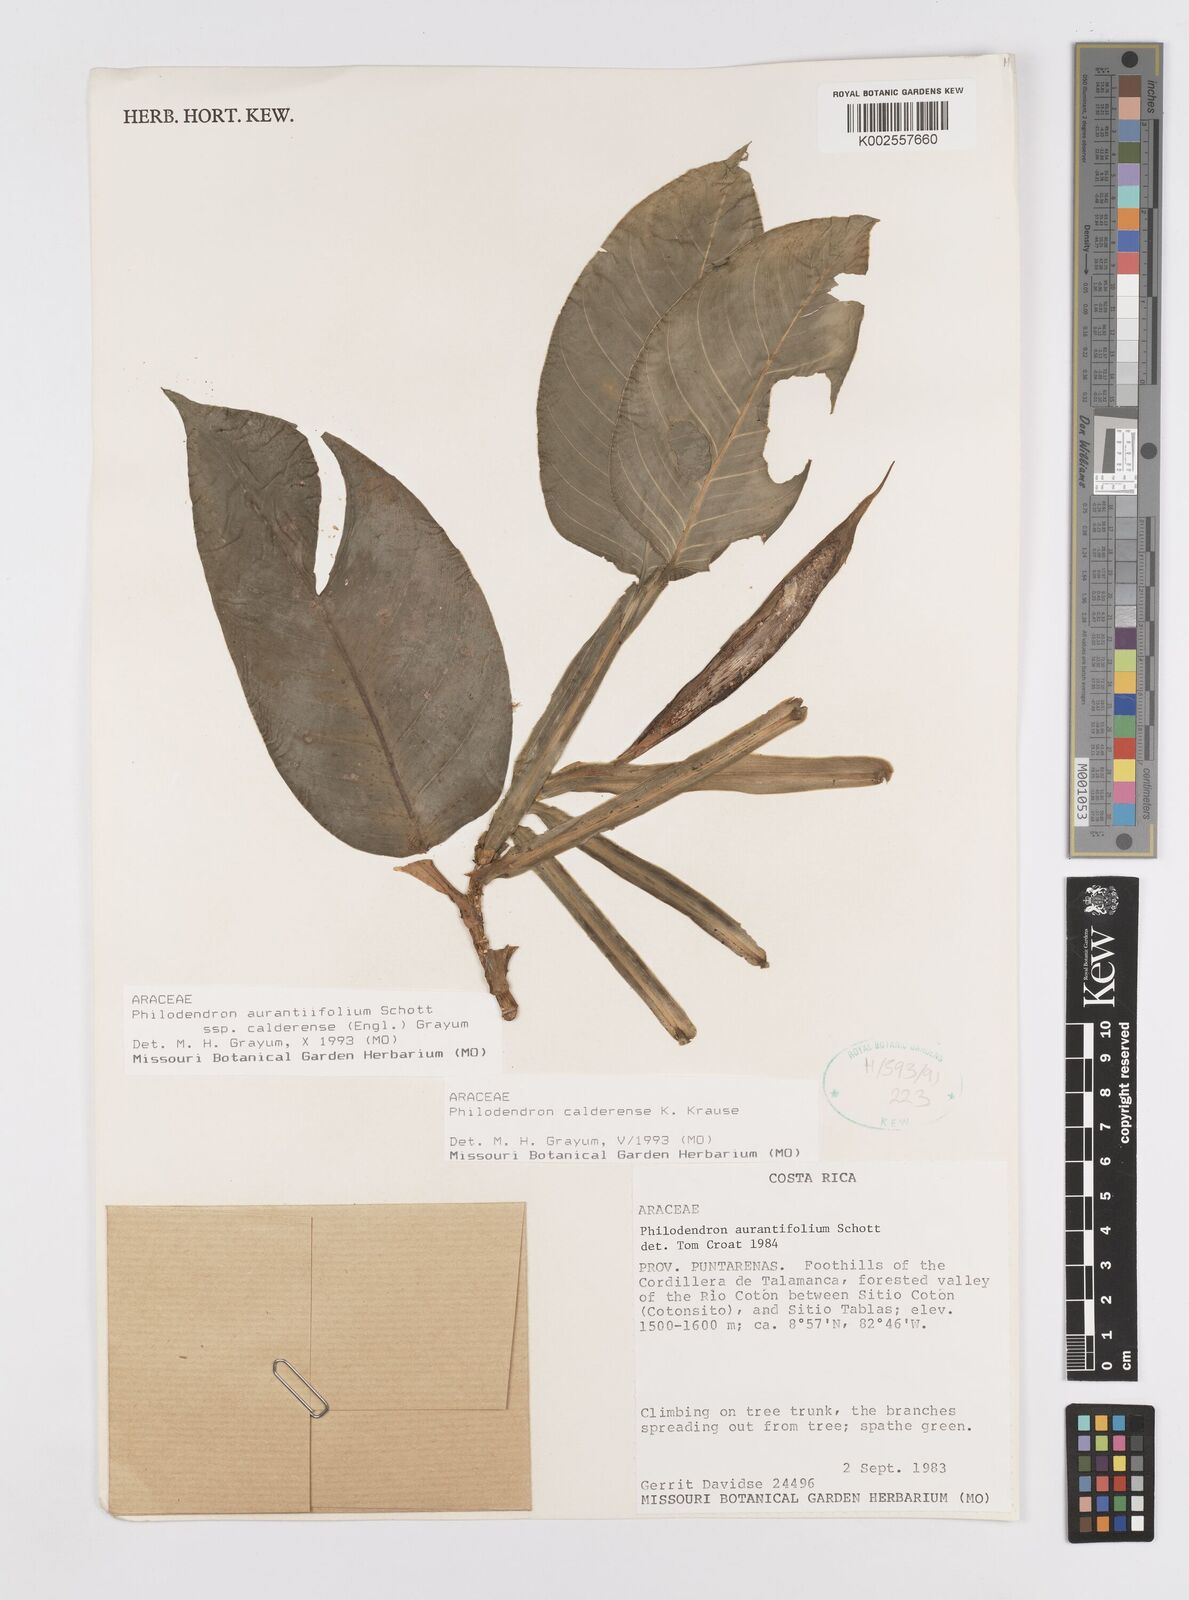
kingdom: Plantae
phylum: Tracheophyta
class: Liliopsida
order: Alismatales
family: Araceae
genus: Philodendron
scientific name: Philodendron aurantiifolium
